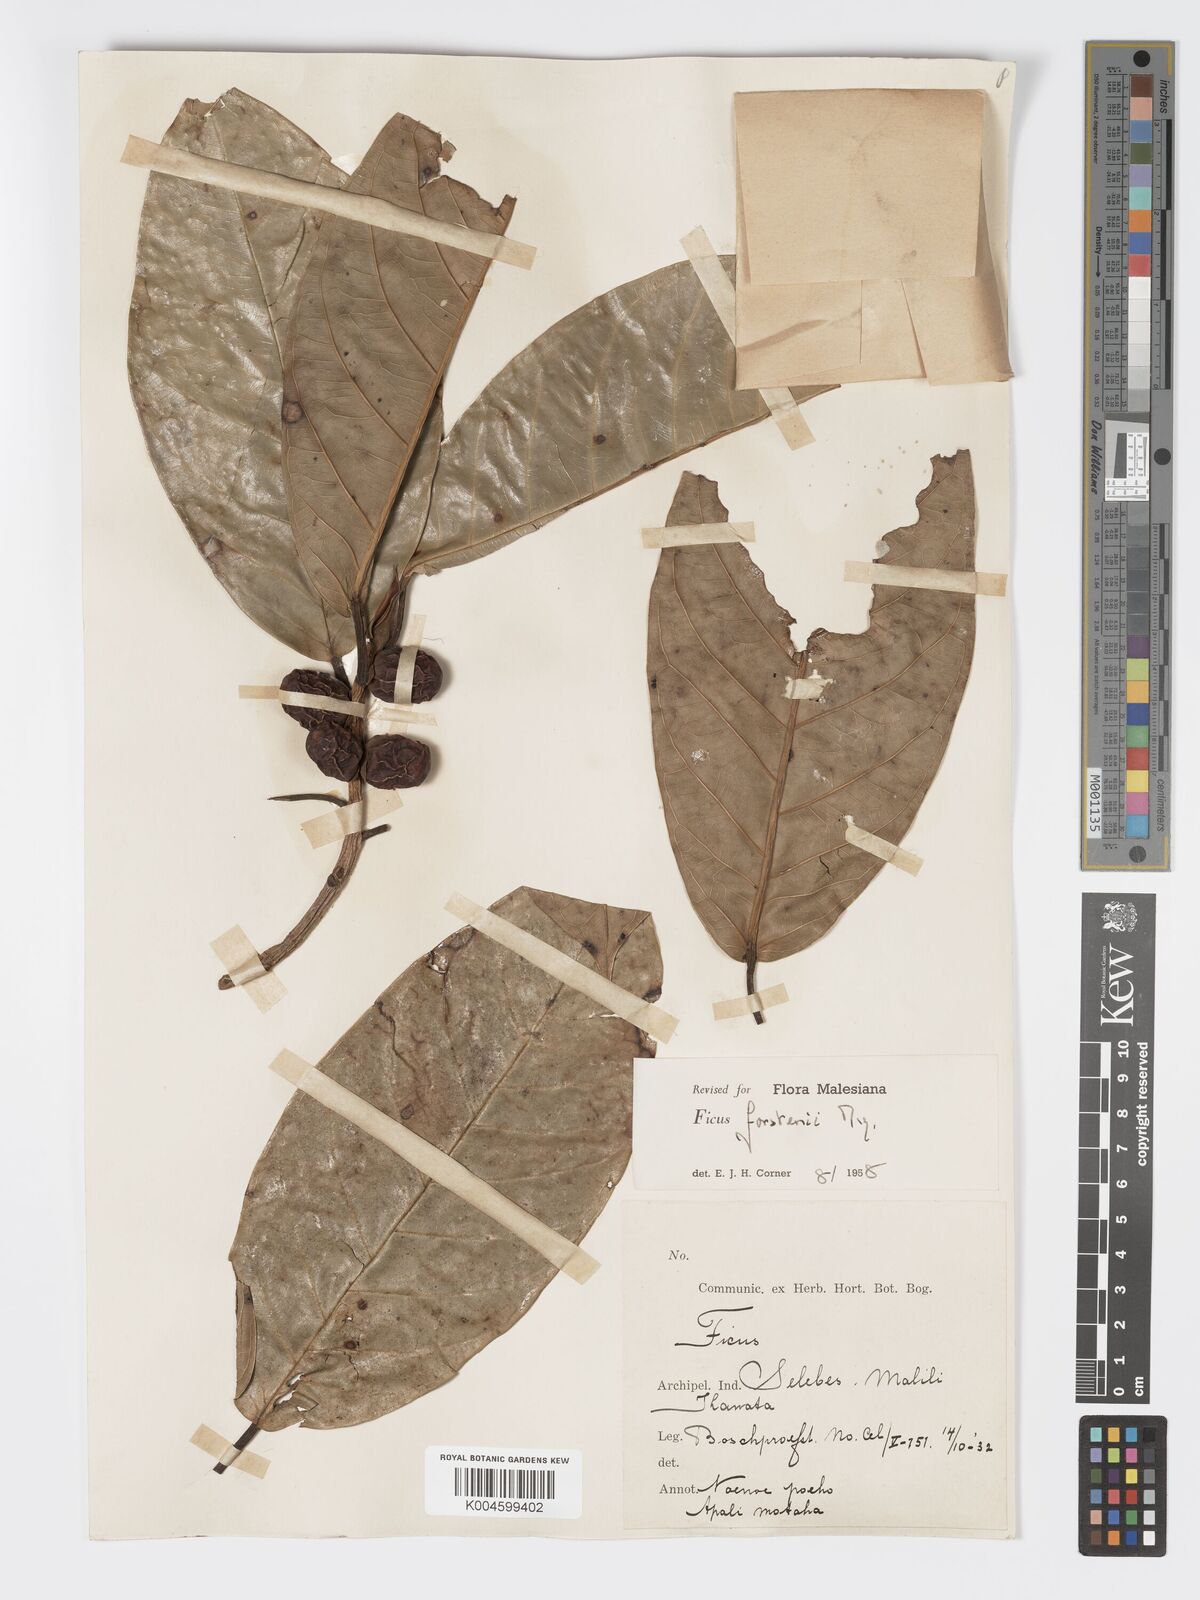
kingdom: Plantae
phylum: Tracheophyta
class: Magnoliopsida
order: Rosales
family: Moraceae
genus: Ficus
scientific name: Ficus forstenii
